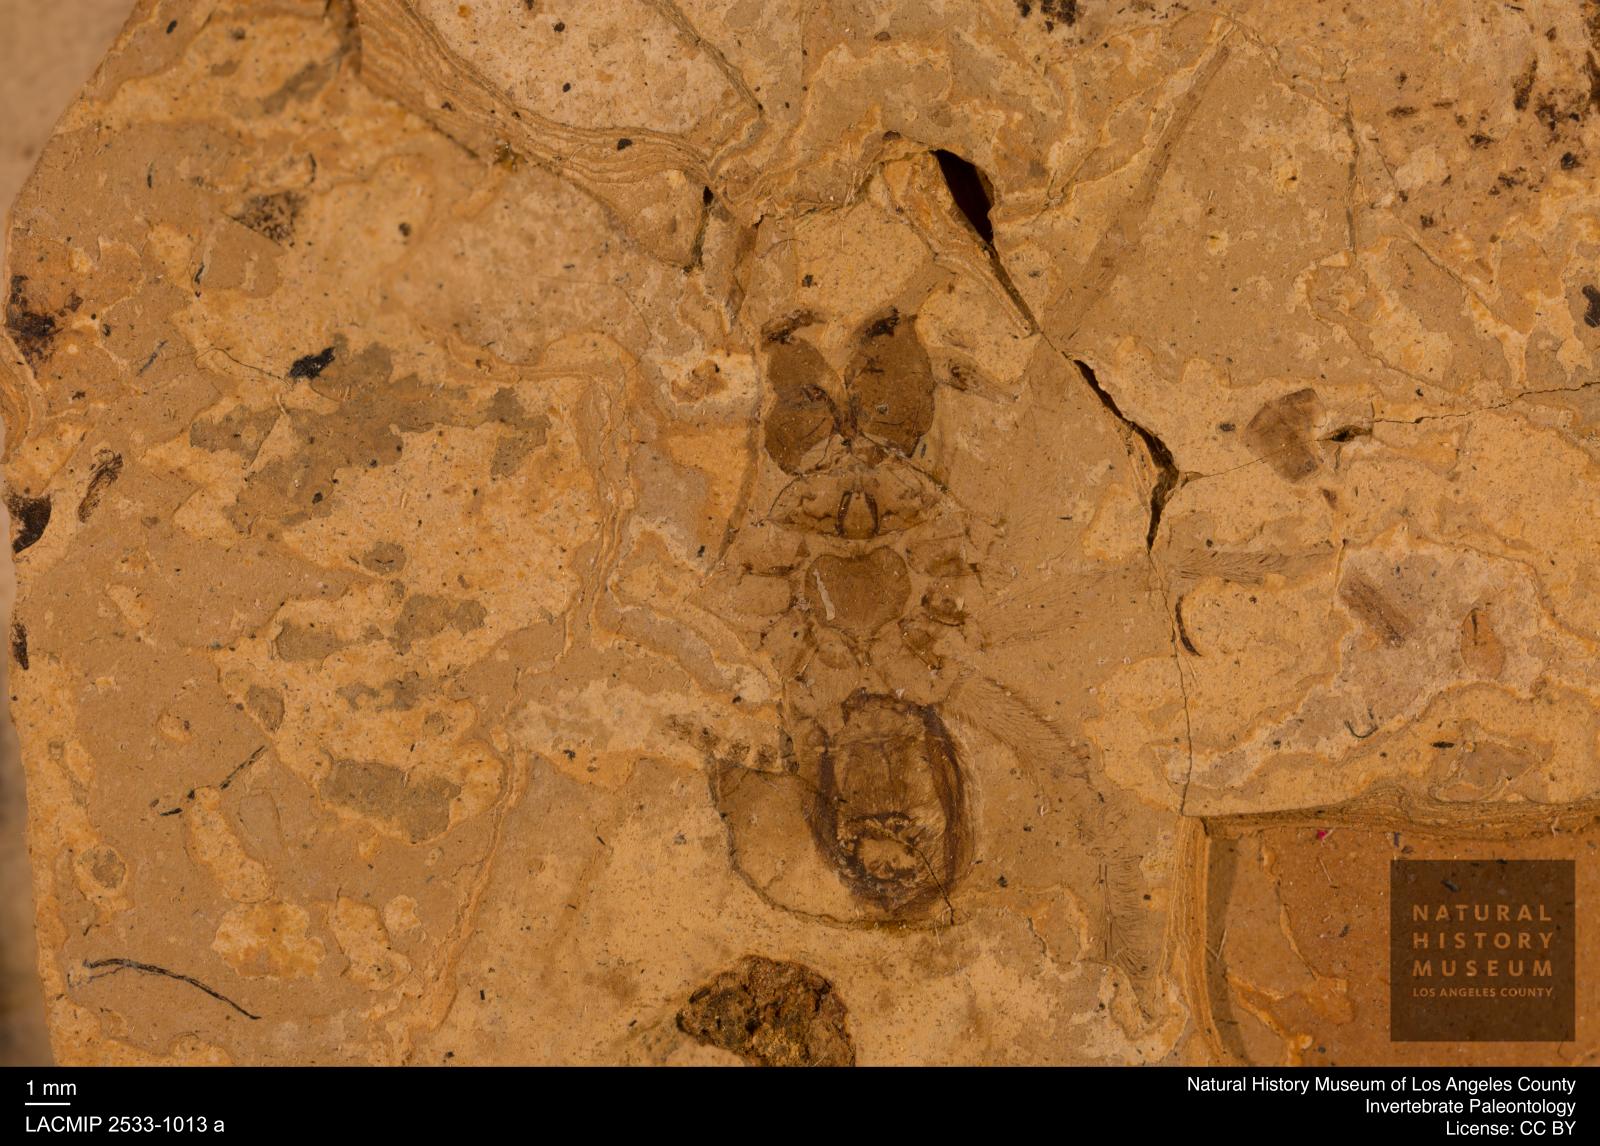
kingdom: Animalia
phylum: Arthropoda
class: Arachnida
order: Araneae
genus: Elvina
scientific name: Elvina Argyroneta antiqua
